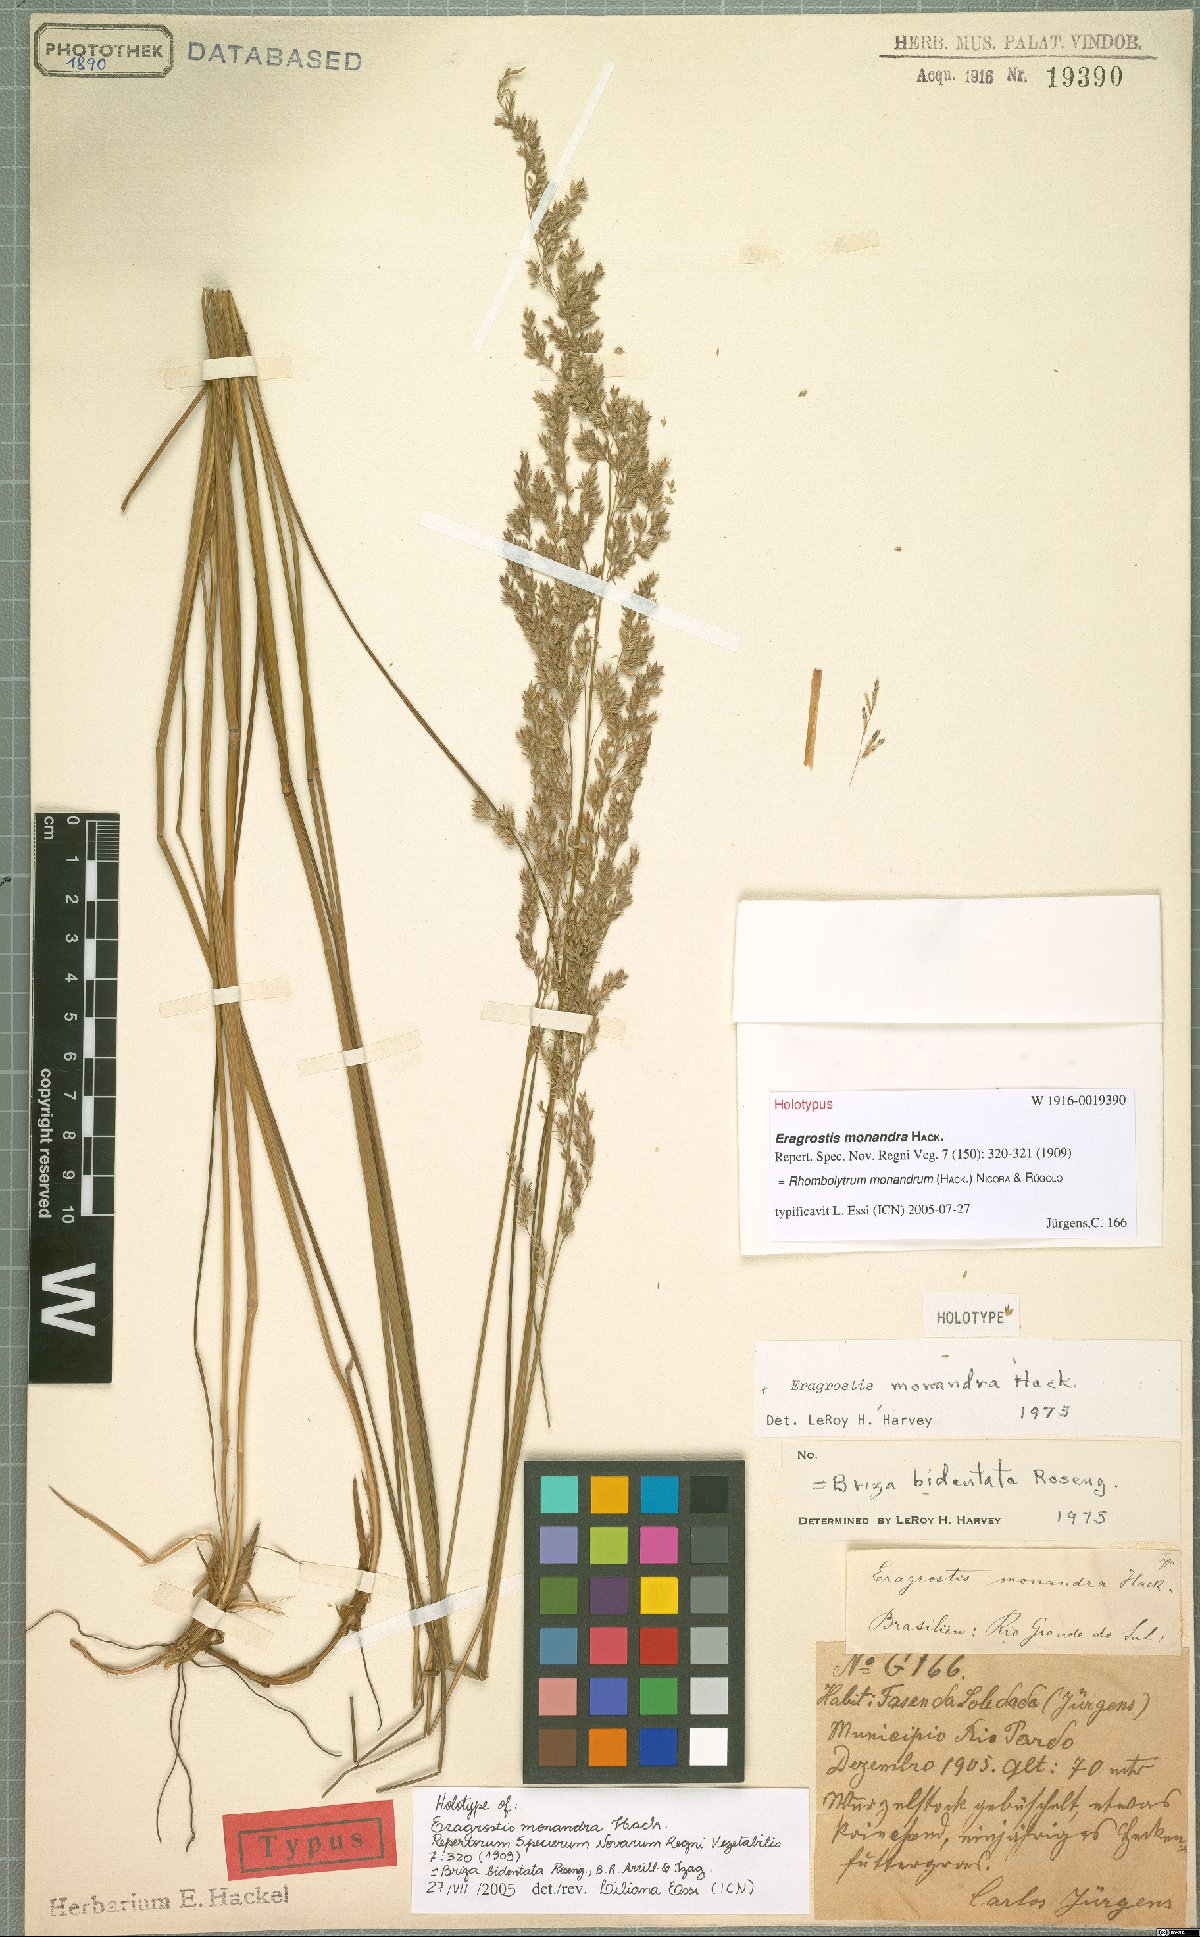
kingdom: Plantae
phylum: Tracheophyta
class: Liliopsida
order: Poales
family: Poaceae
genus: Rhombolytrum
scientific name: Rhombolytrum monandrum
